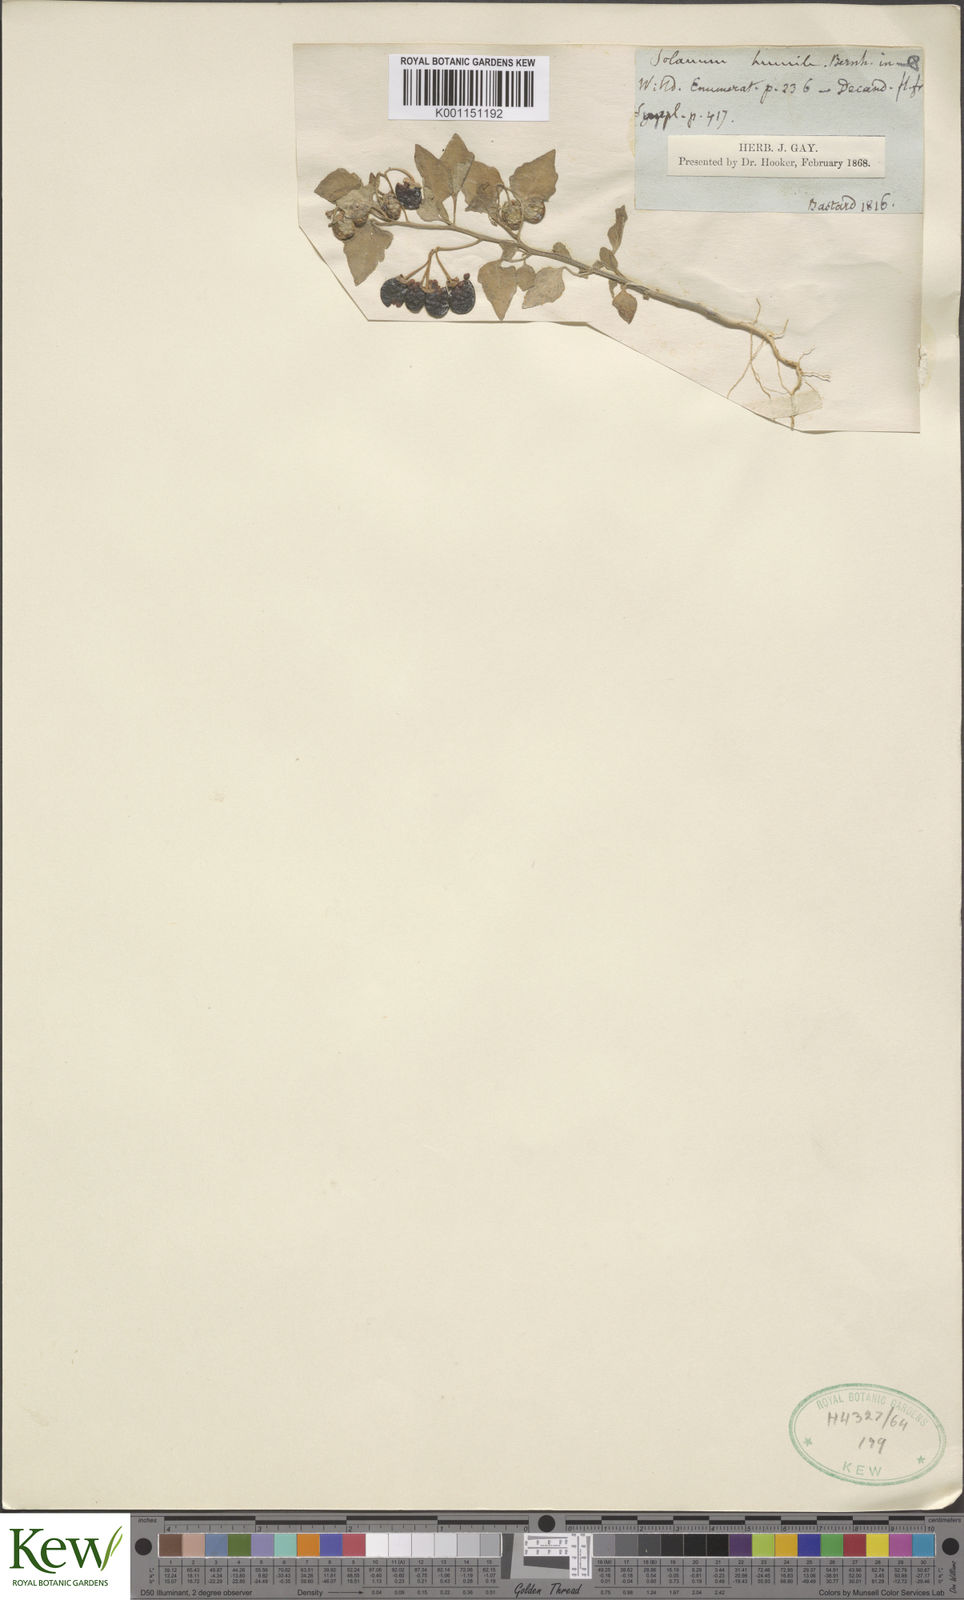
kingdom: Plantae
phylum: Tracheophyta
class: Magnoliopsida
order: Solanales
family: Solanaceae
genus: Solanum
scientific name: Solanum villosum
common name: Red nightshade
